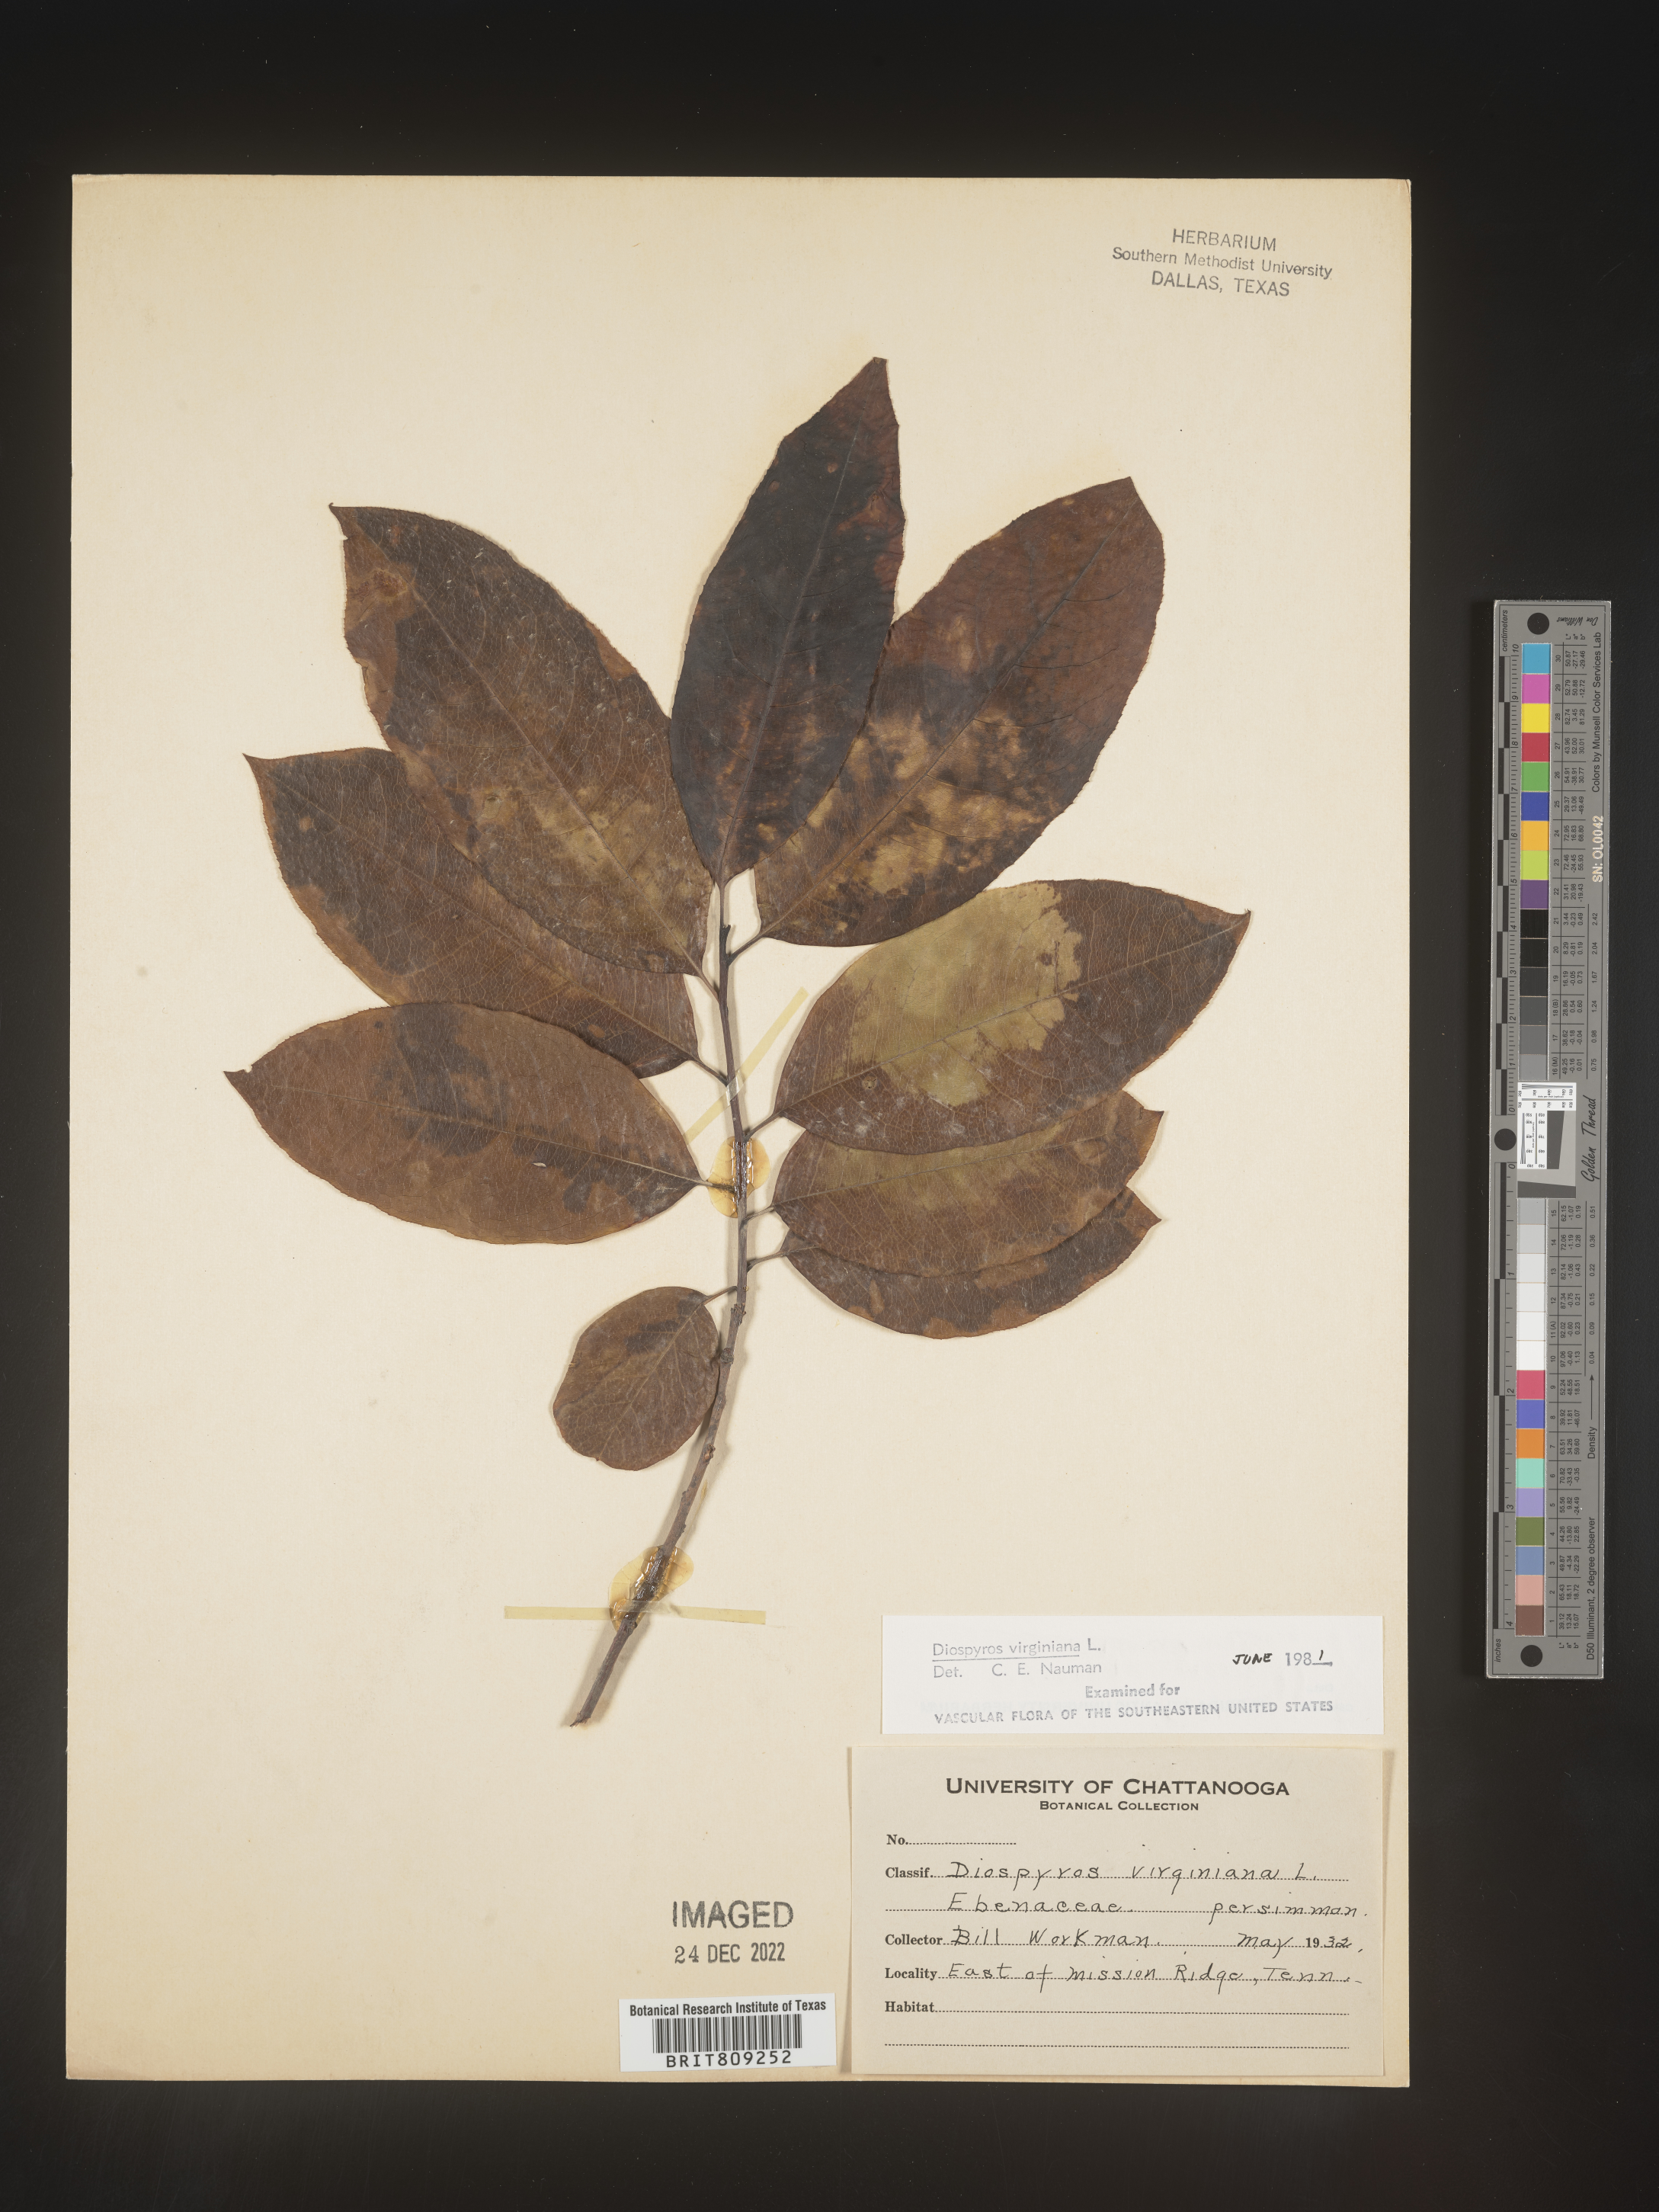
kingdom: Plantae
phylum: Tracheophyta
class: Magnoliopsida
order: Ericales
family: Ebenaceae
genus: Diospyros
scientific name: Diospyros virginiana
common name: Persimmon
